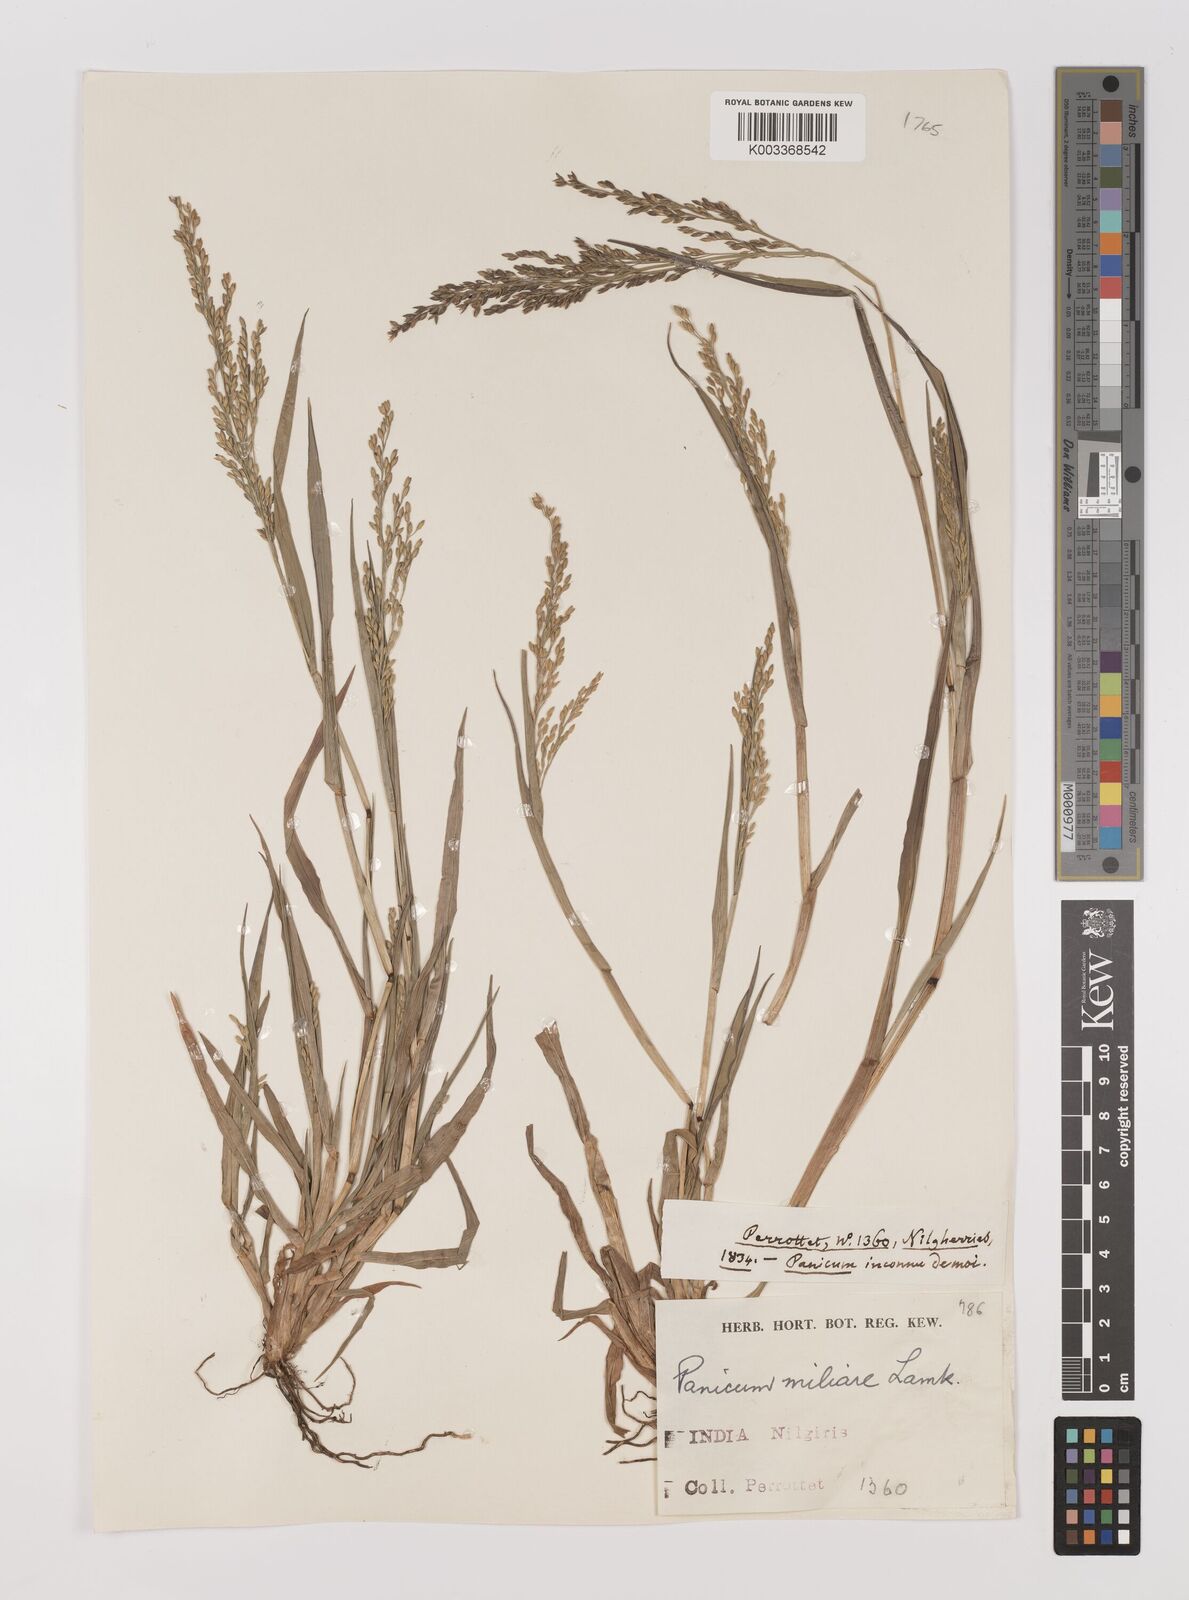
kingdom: Plantae
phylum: Tracheophyta
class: Liliopsida
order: Poales
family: Poaceae
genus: Panicum
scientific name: Panicum sumatrense
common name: Little millet
